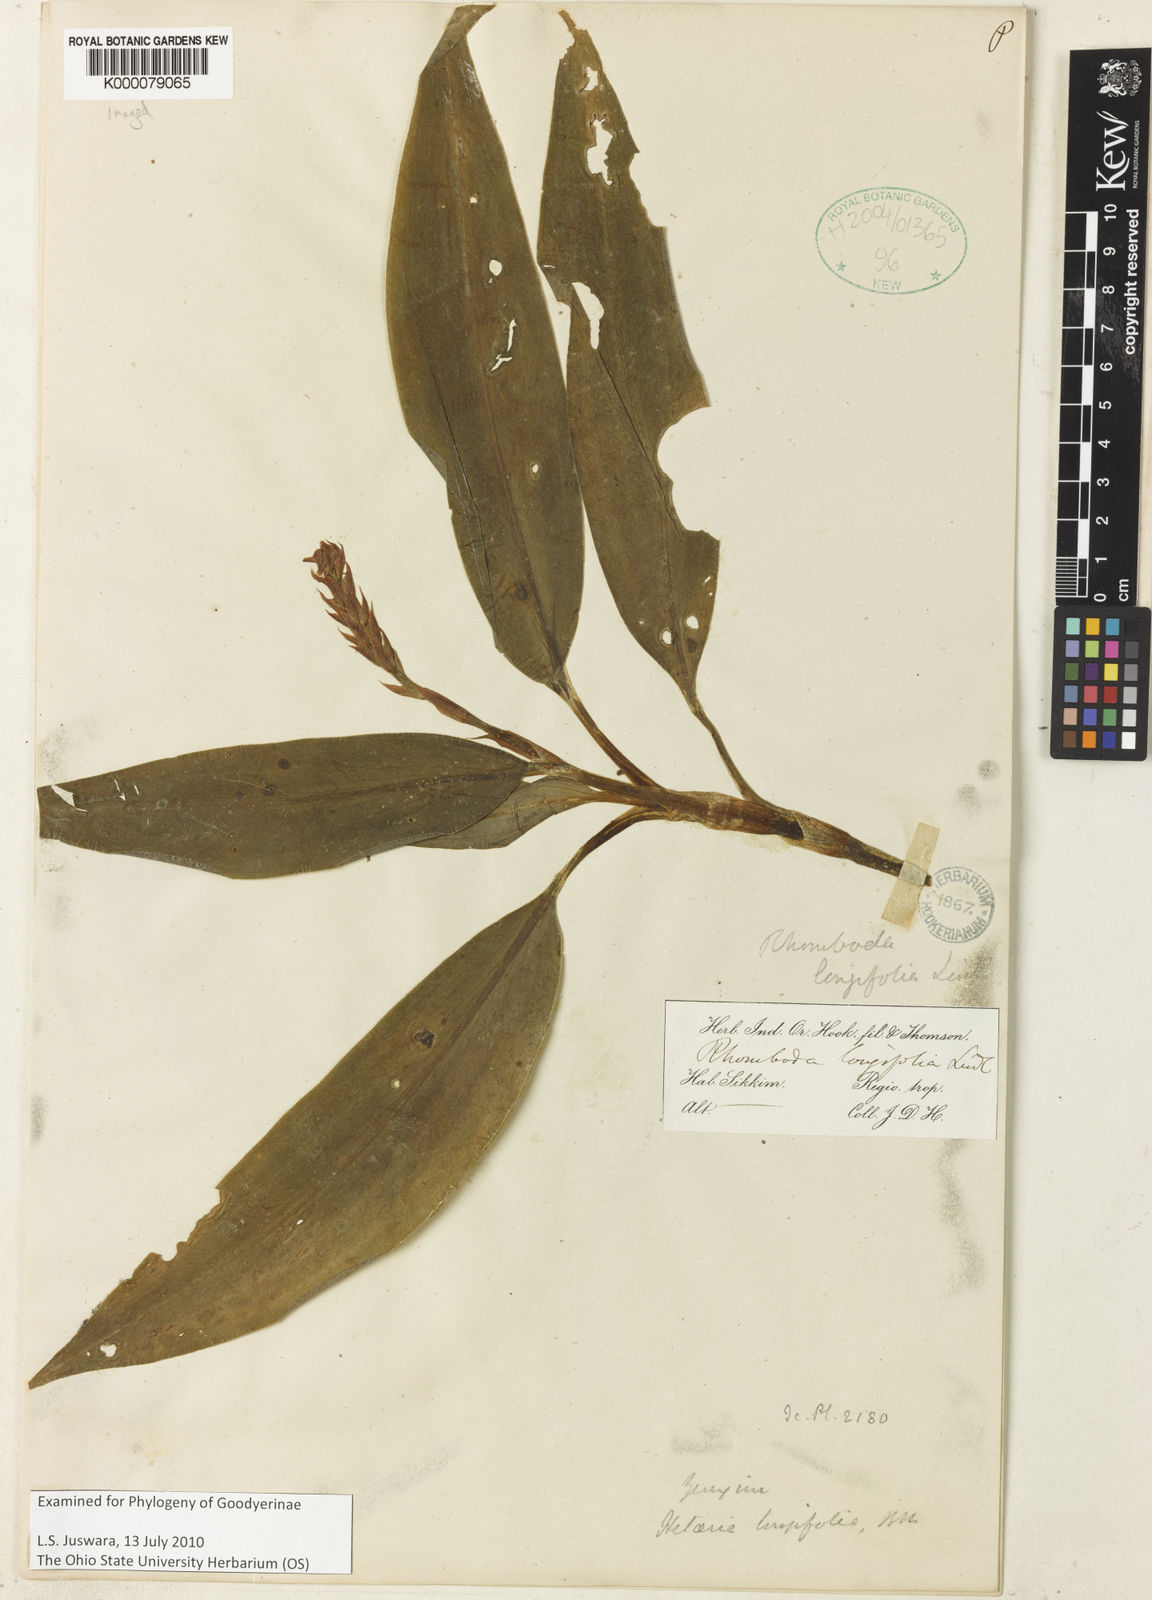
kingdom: Plantae
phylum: Tracheophyta
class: Liliopsida
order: Asparagales
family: Orchidaceae
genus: Rhomboda
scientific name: Rhomboda longifolia
